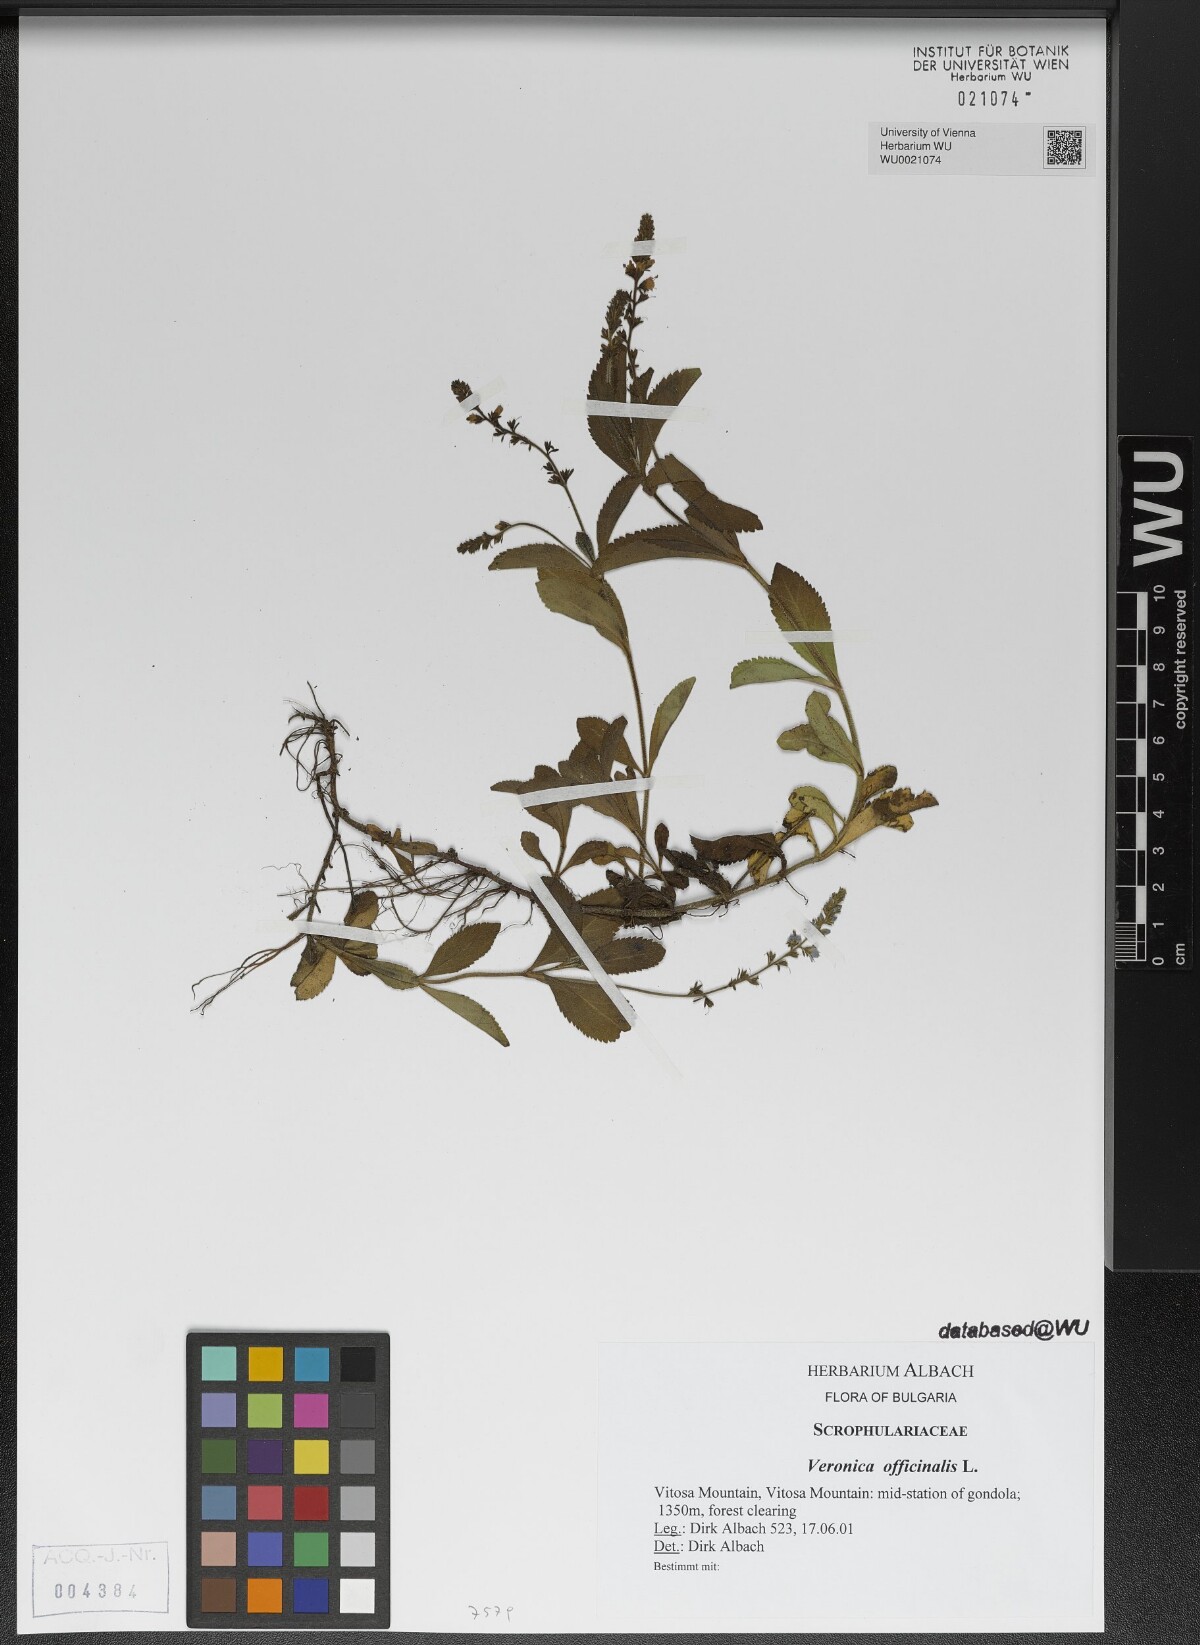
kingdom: Plantae
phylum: Tracheophyta
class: Magnoliopsida
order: Lamiales
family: Plantaginaceae
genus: Veronica
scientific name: Veronica officinalis
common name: Common speedwell
